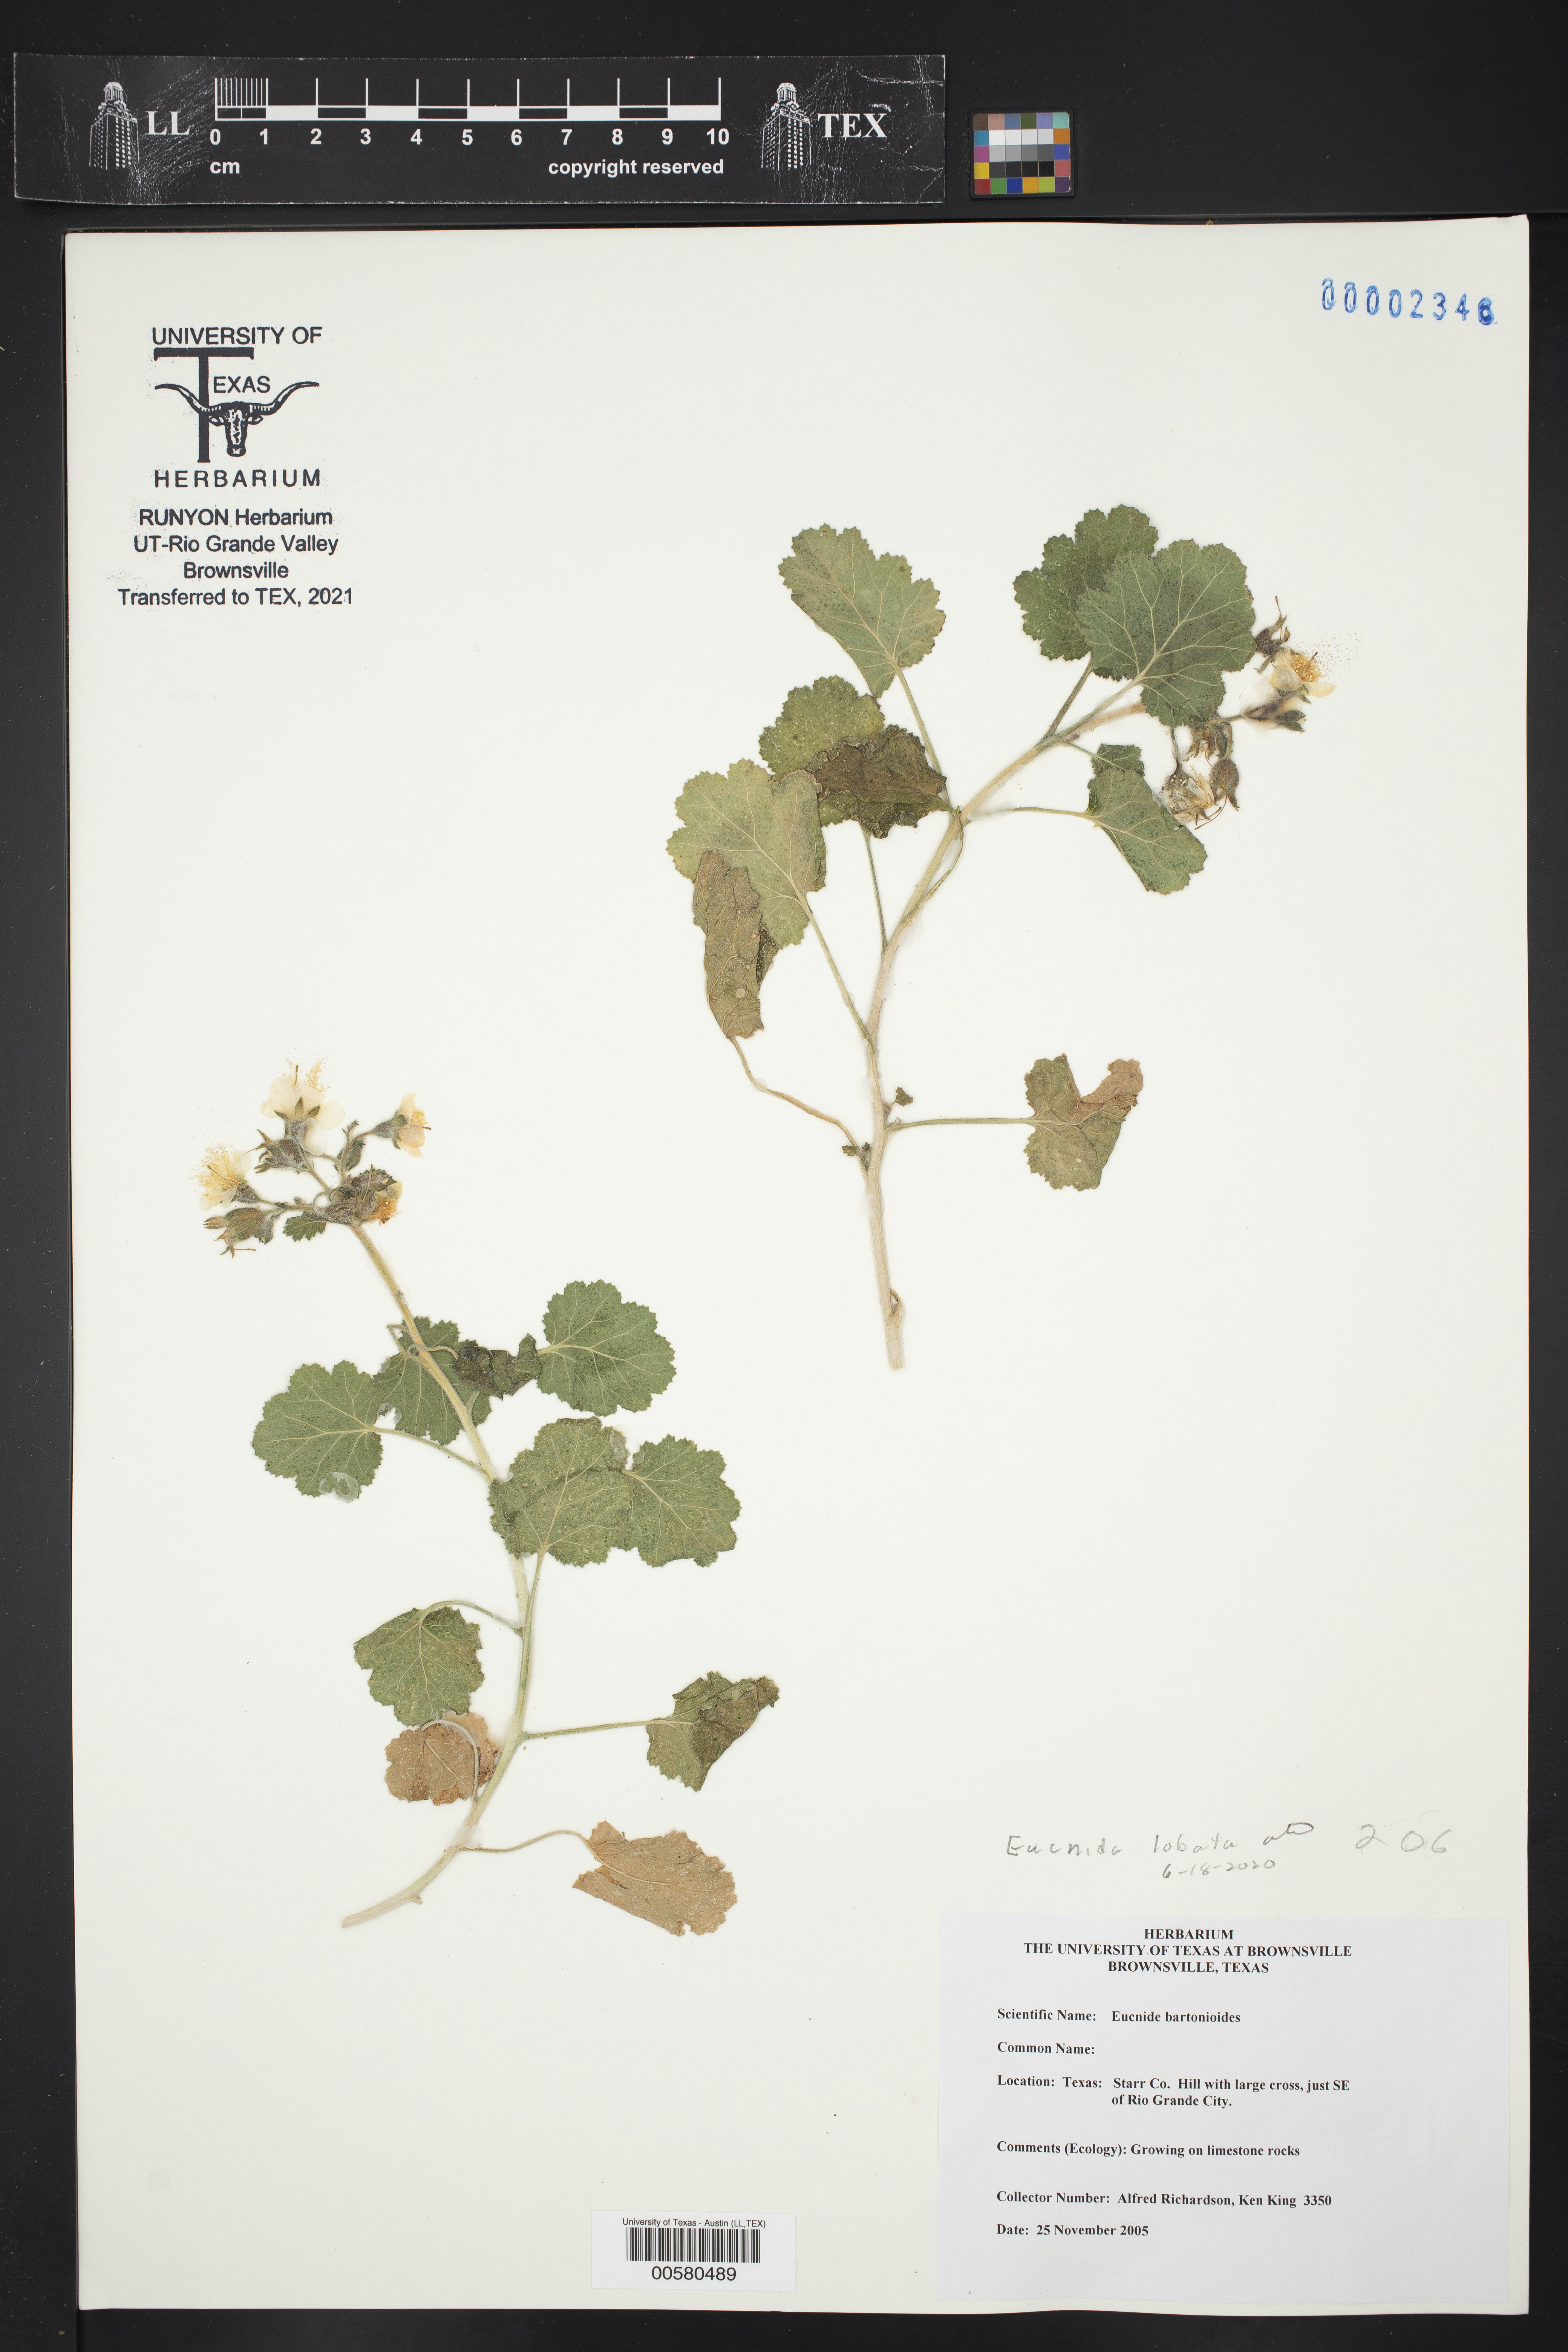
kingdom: Plantae
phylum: Tracheophyta
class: Magnoliopsida
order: Cornales
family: Loasaceae
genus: Eucnide
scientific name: Eucnide lobata
